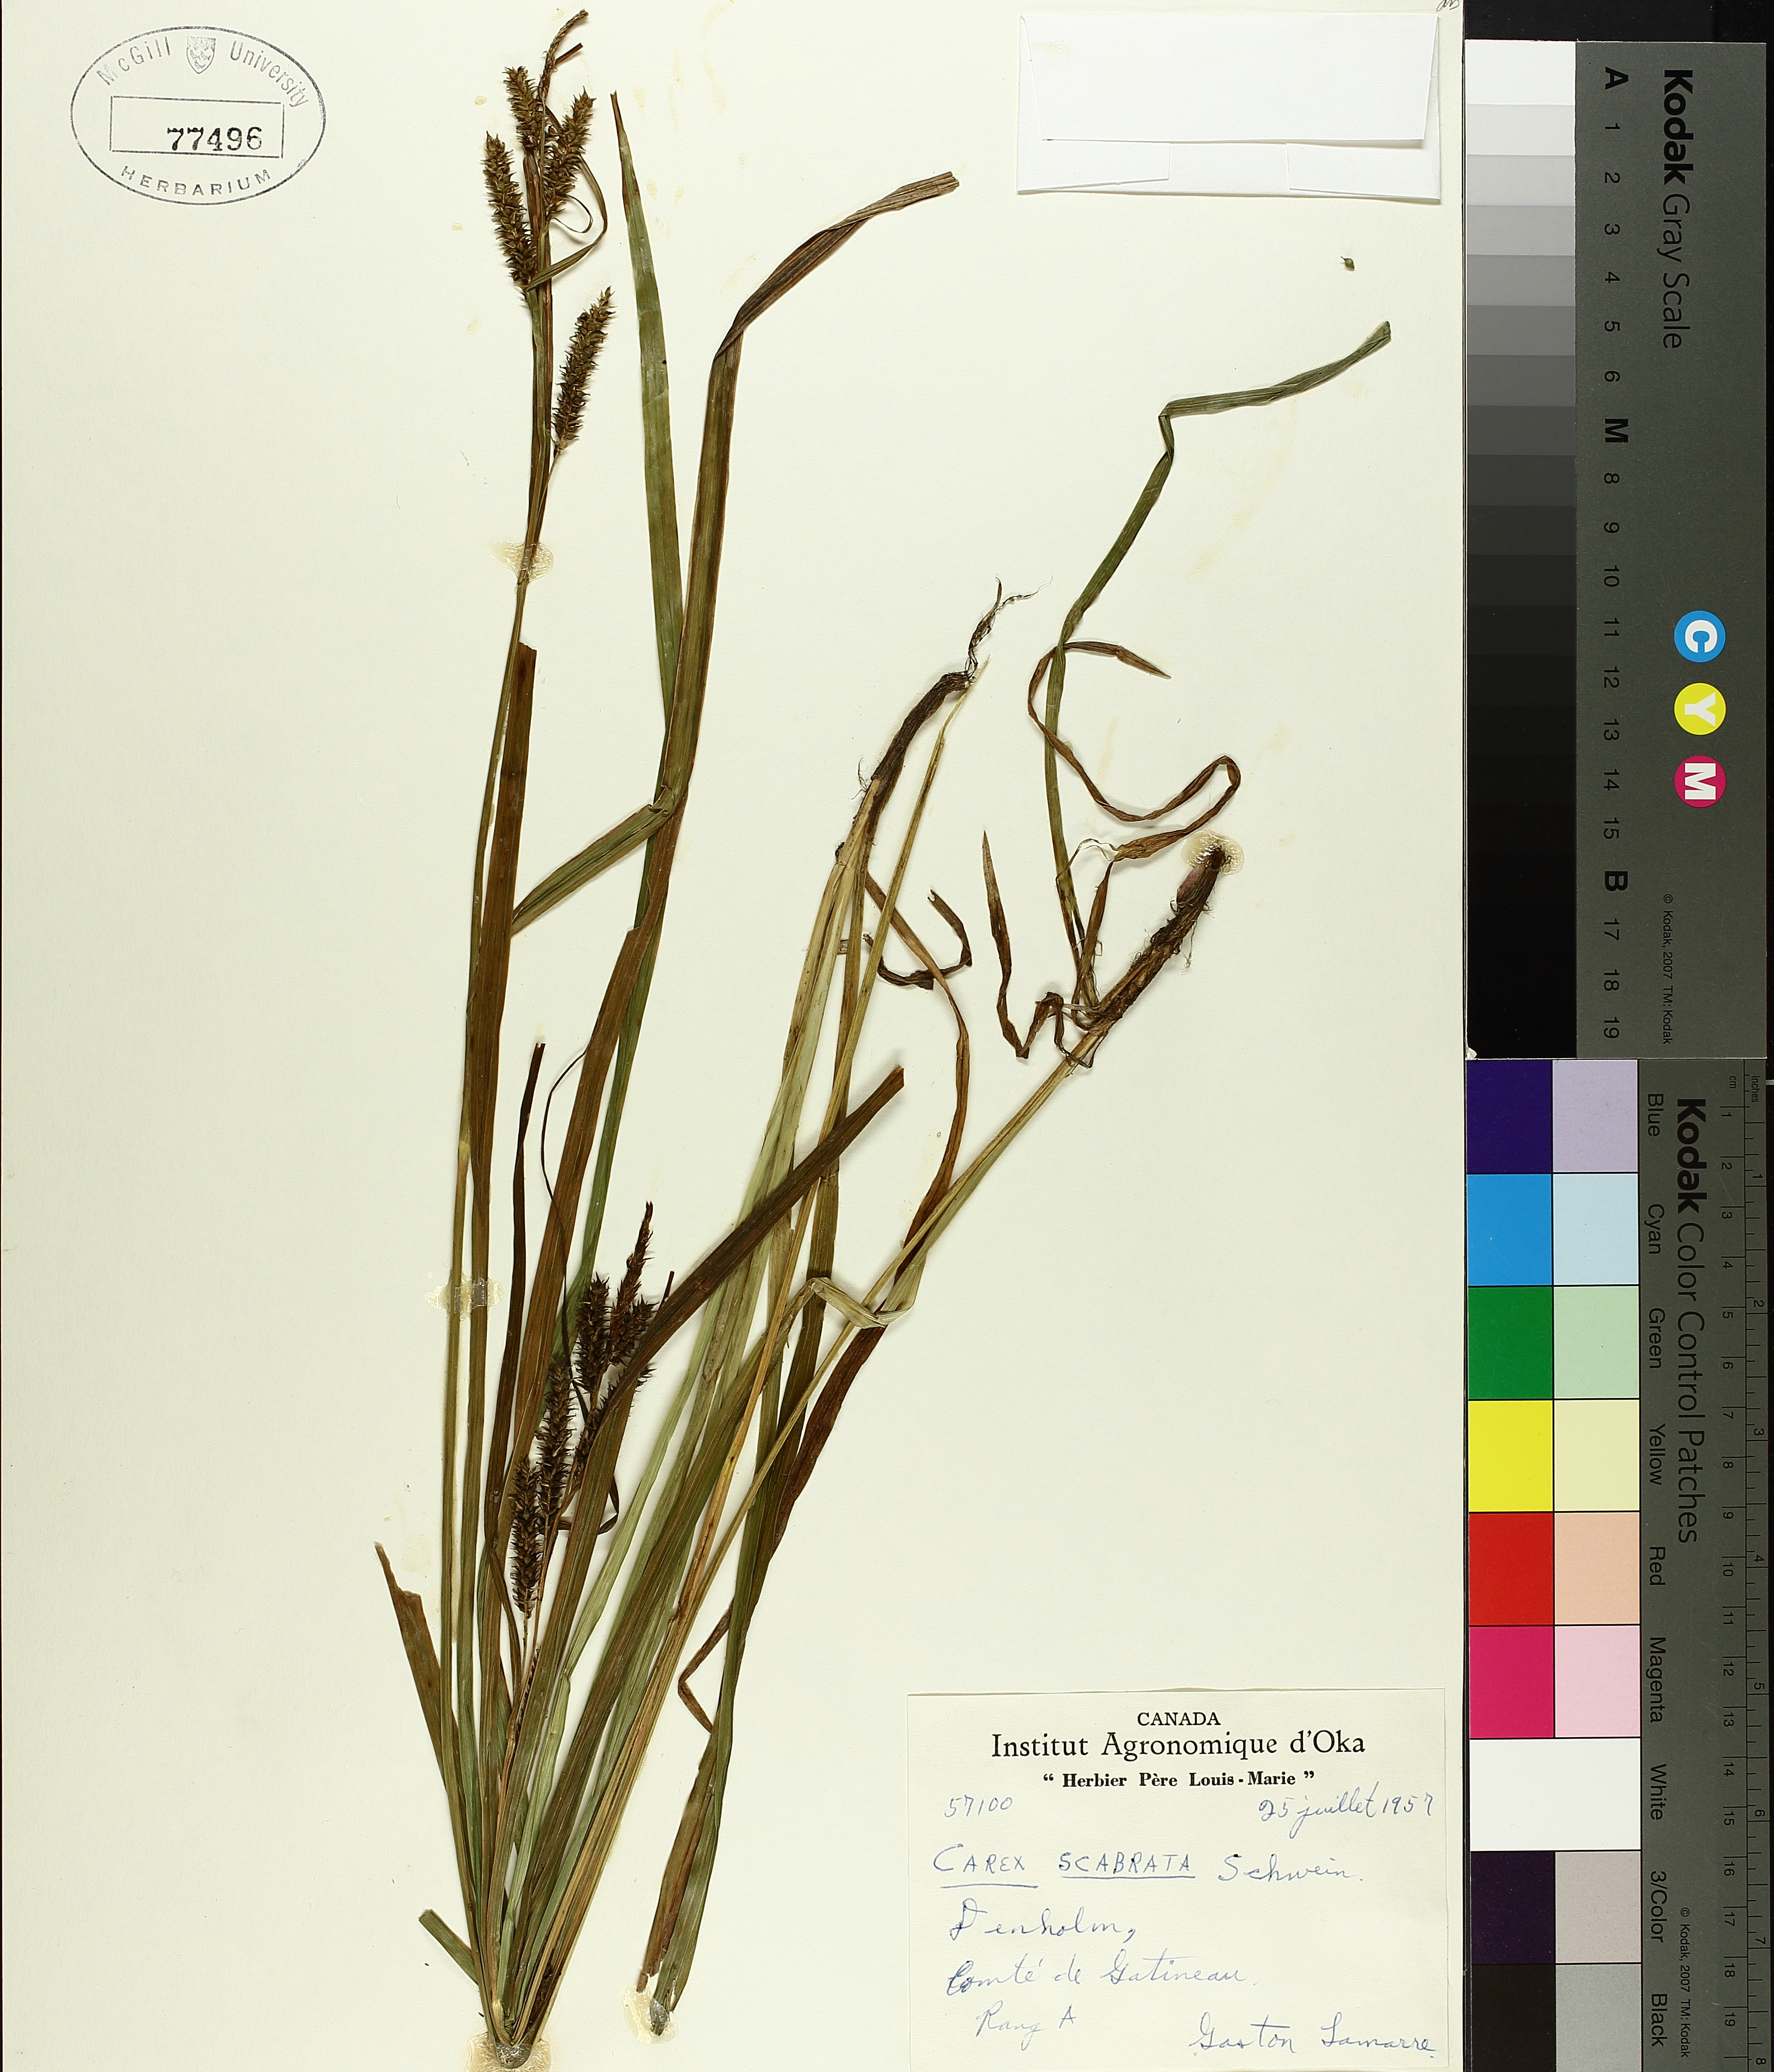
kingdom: Plantae
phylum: Tracheophyta
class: Liliopsida
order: Poales
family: Cyperaceae
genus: Carex
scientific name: Carex saxatilis
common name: Russet sedge
